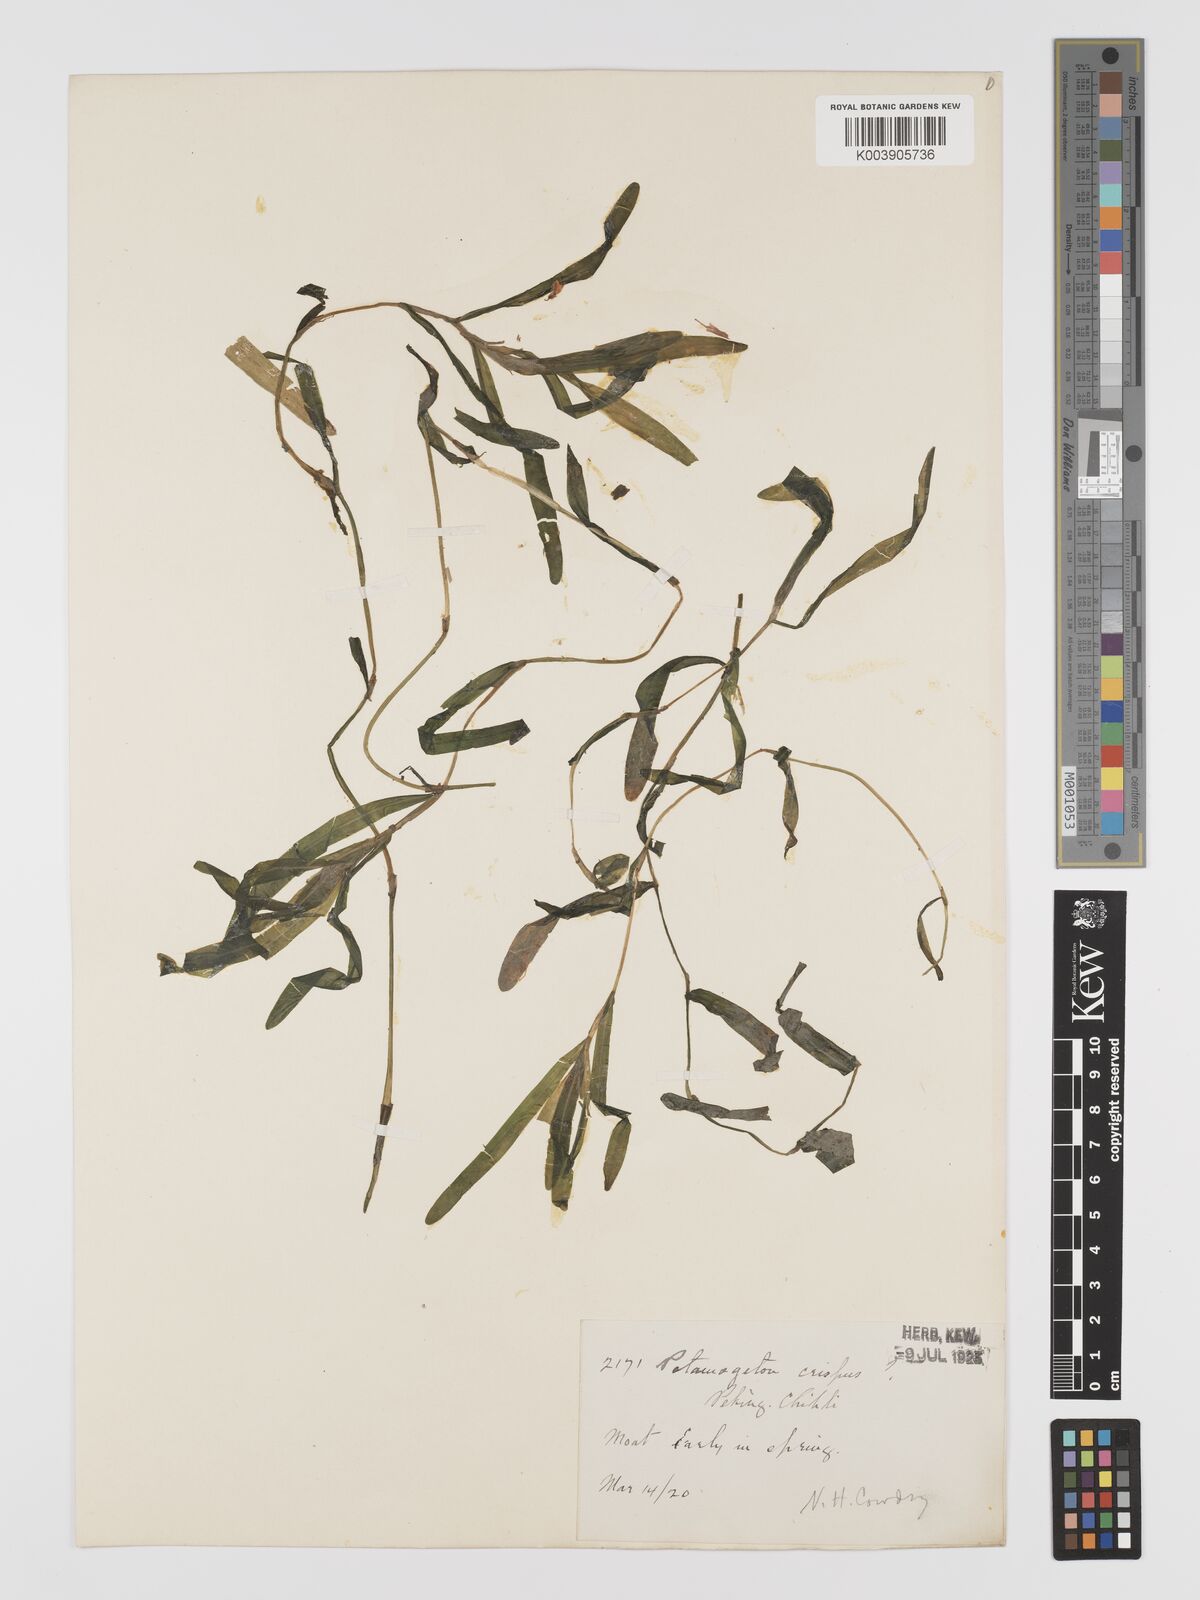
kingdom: Plantae
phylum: Tracheophyta
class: Liliopsida
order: Alismatales
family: Potamogetonaceae
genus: Potamogeton
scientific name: Potamogeton crispus
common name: Curled pondweed
